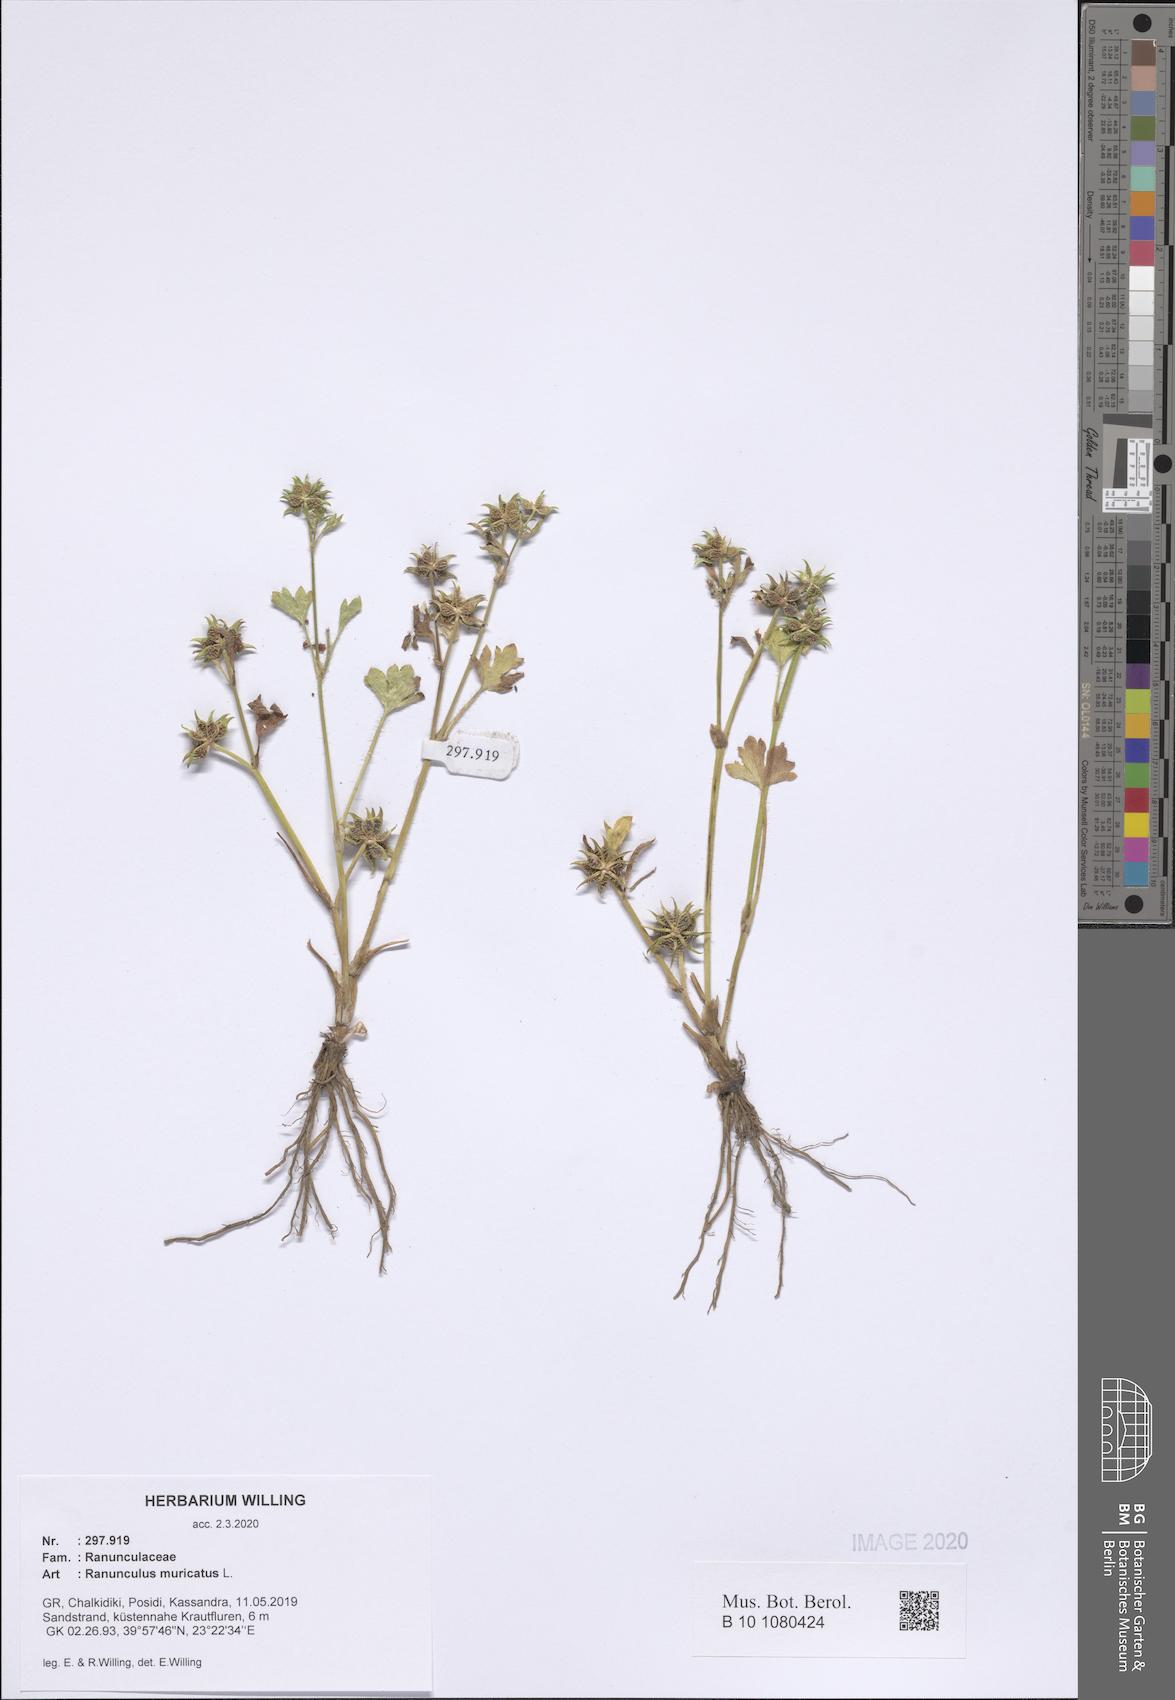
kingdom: Plantae
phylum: Tracheophyta
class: Magnoliopsida
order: Ranunculales
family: Ranunculaceae
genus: Ranunculus
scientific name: Ranunculus muricatus
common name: Rough-fruited buttercup
